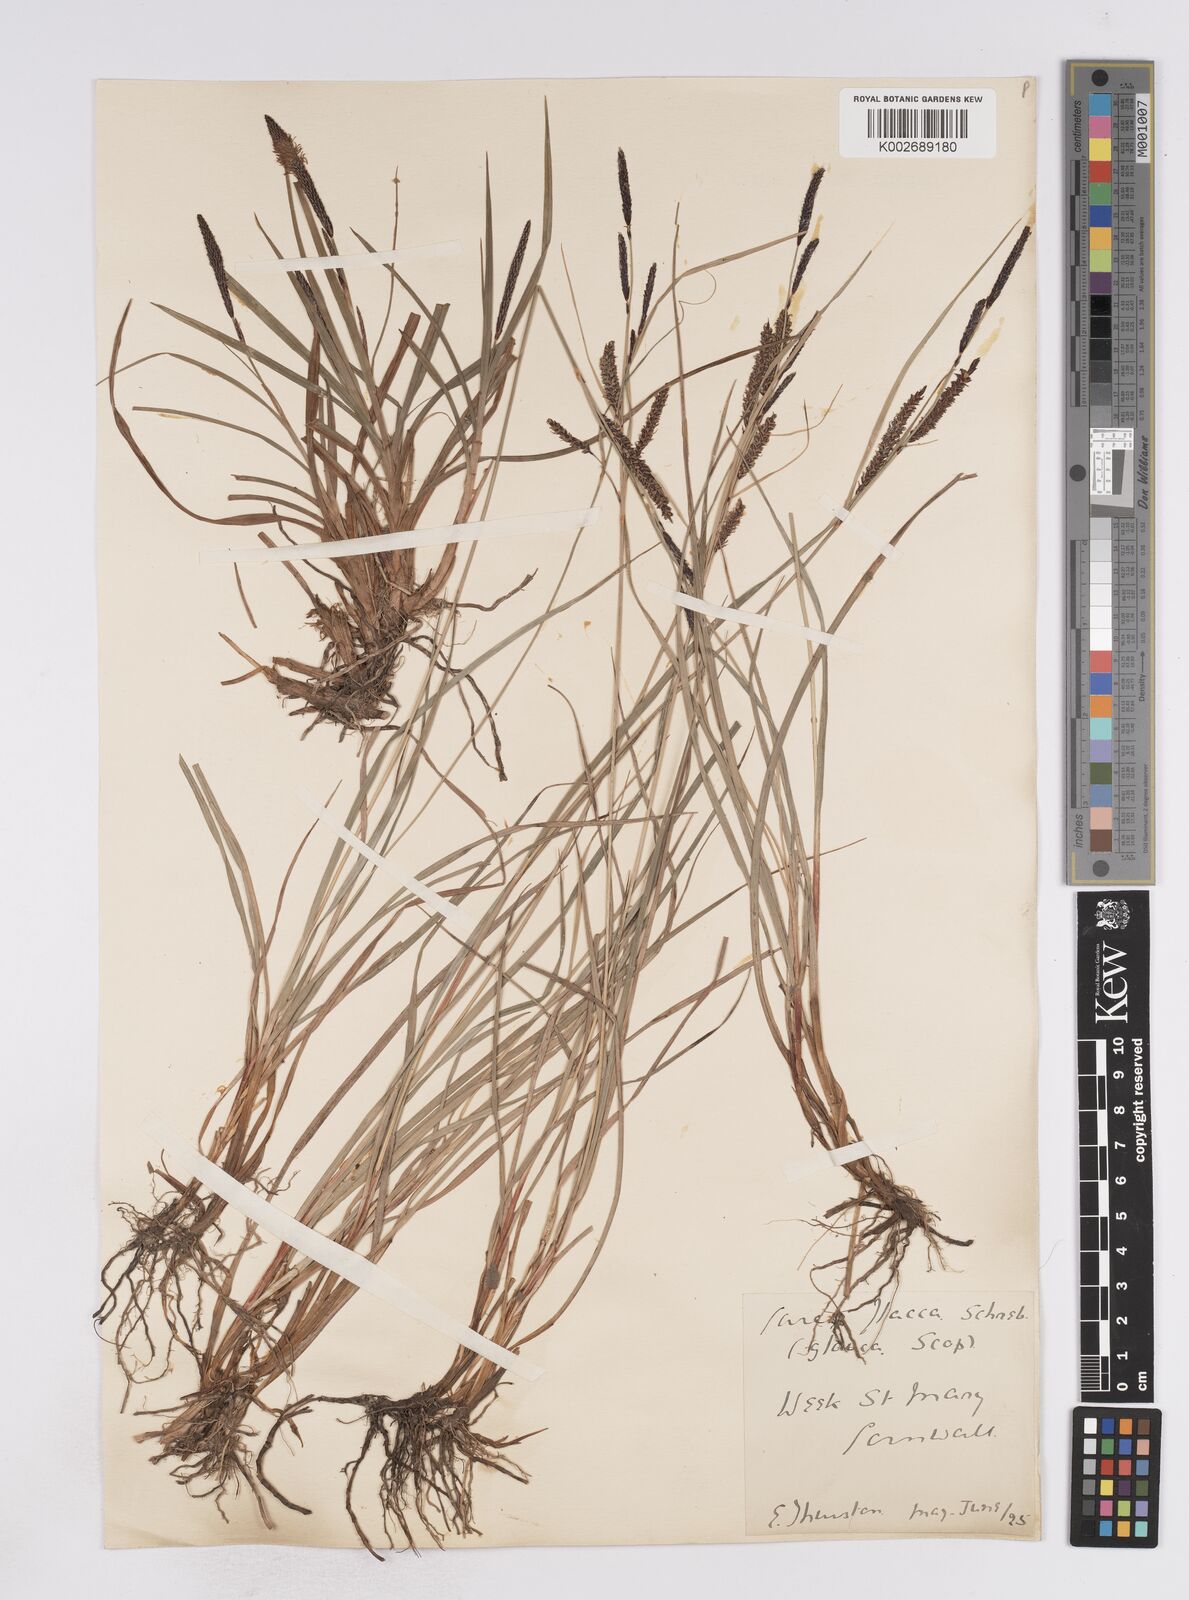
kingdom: Plantae
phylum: Tracheophyta
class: Liliopsida
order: Poales
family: Cyperaceae
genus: Carex
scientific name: Carex flacca
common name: Glaucous sedge
